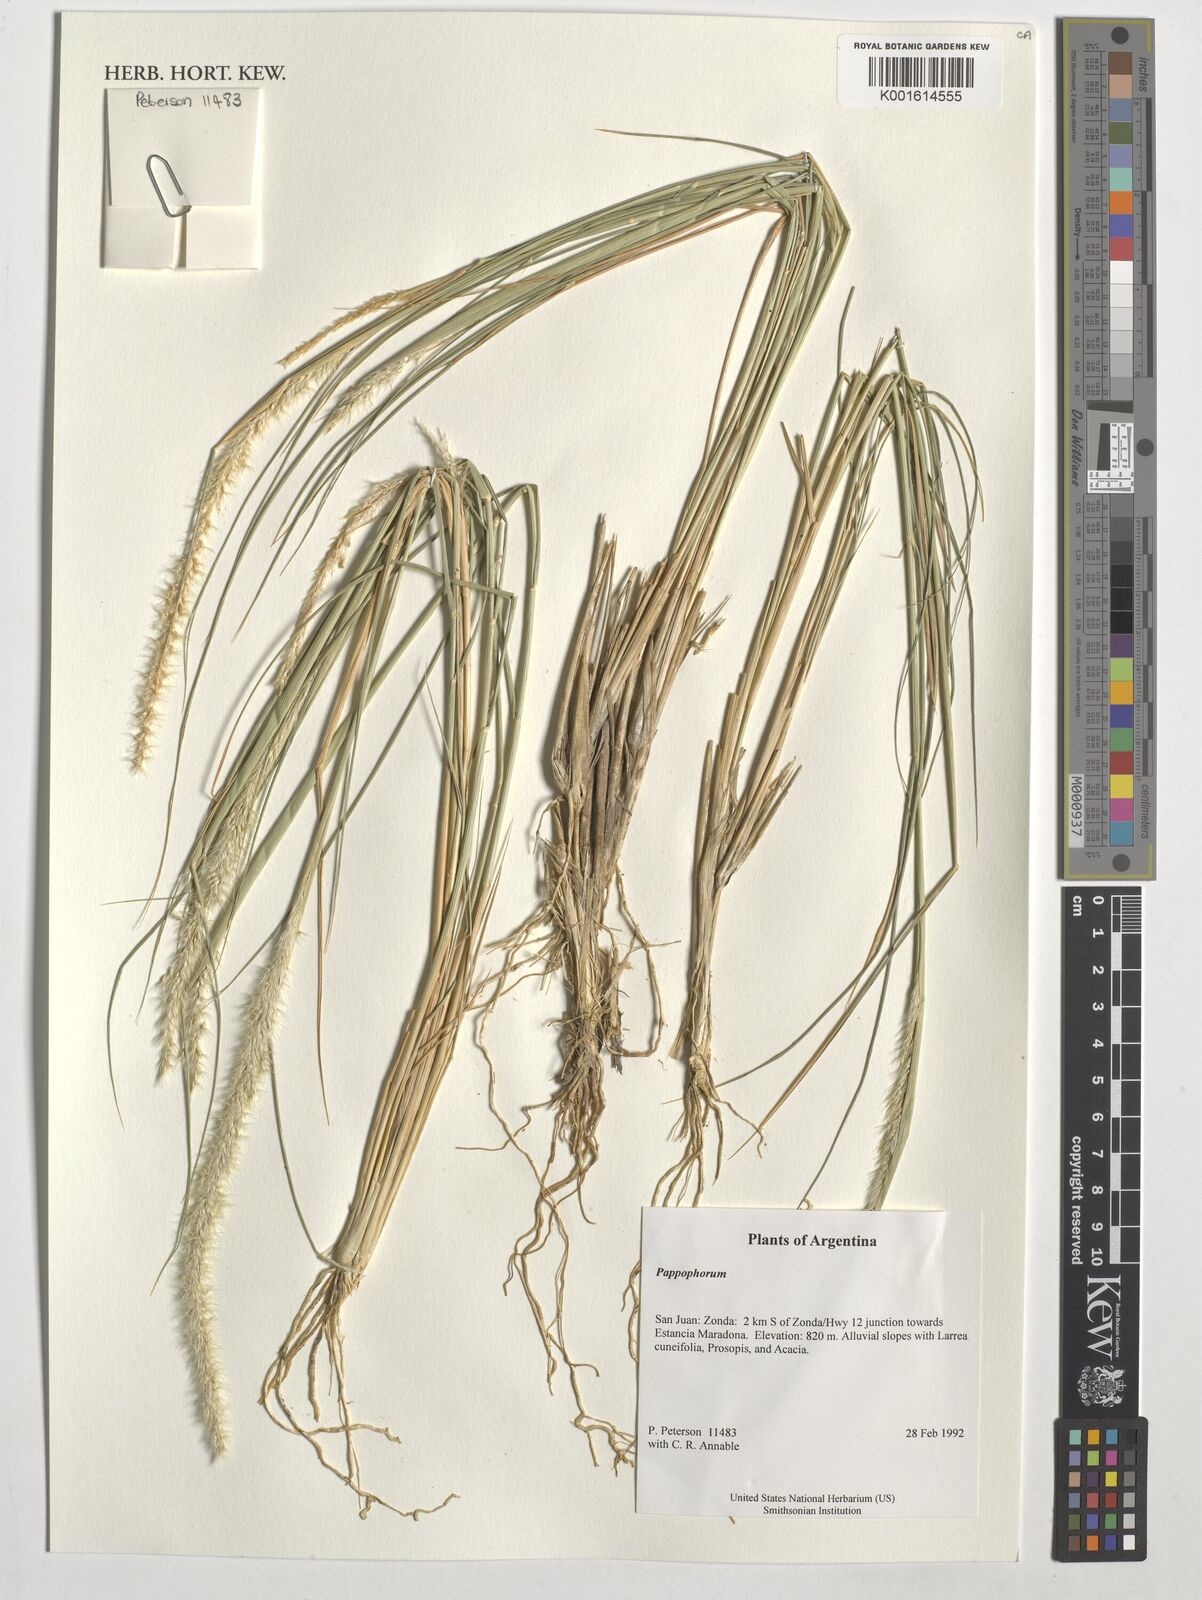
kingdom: Plantae
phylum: Tracheophyta
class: Liliopsida
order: Poales
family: Poaceae
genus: Pappophorum
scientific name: Pappophorum
